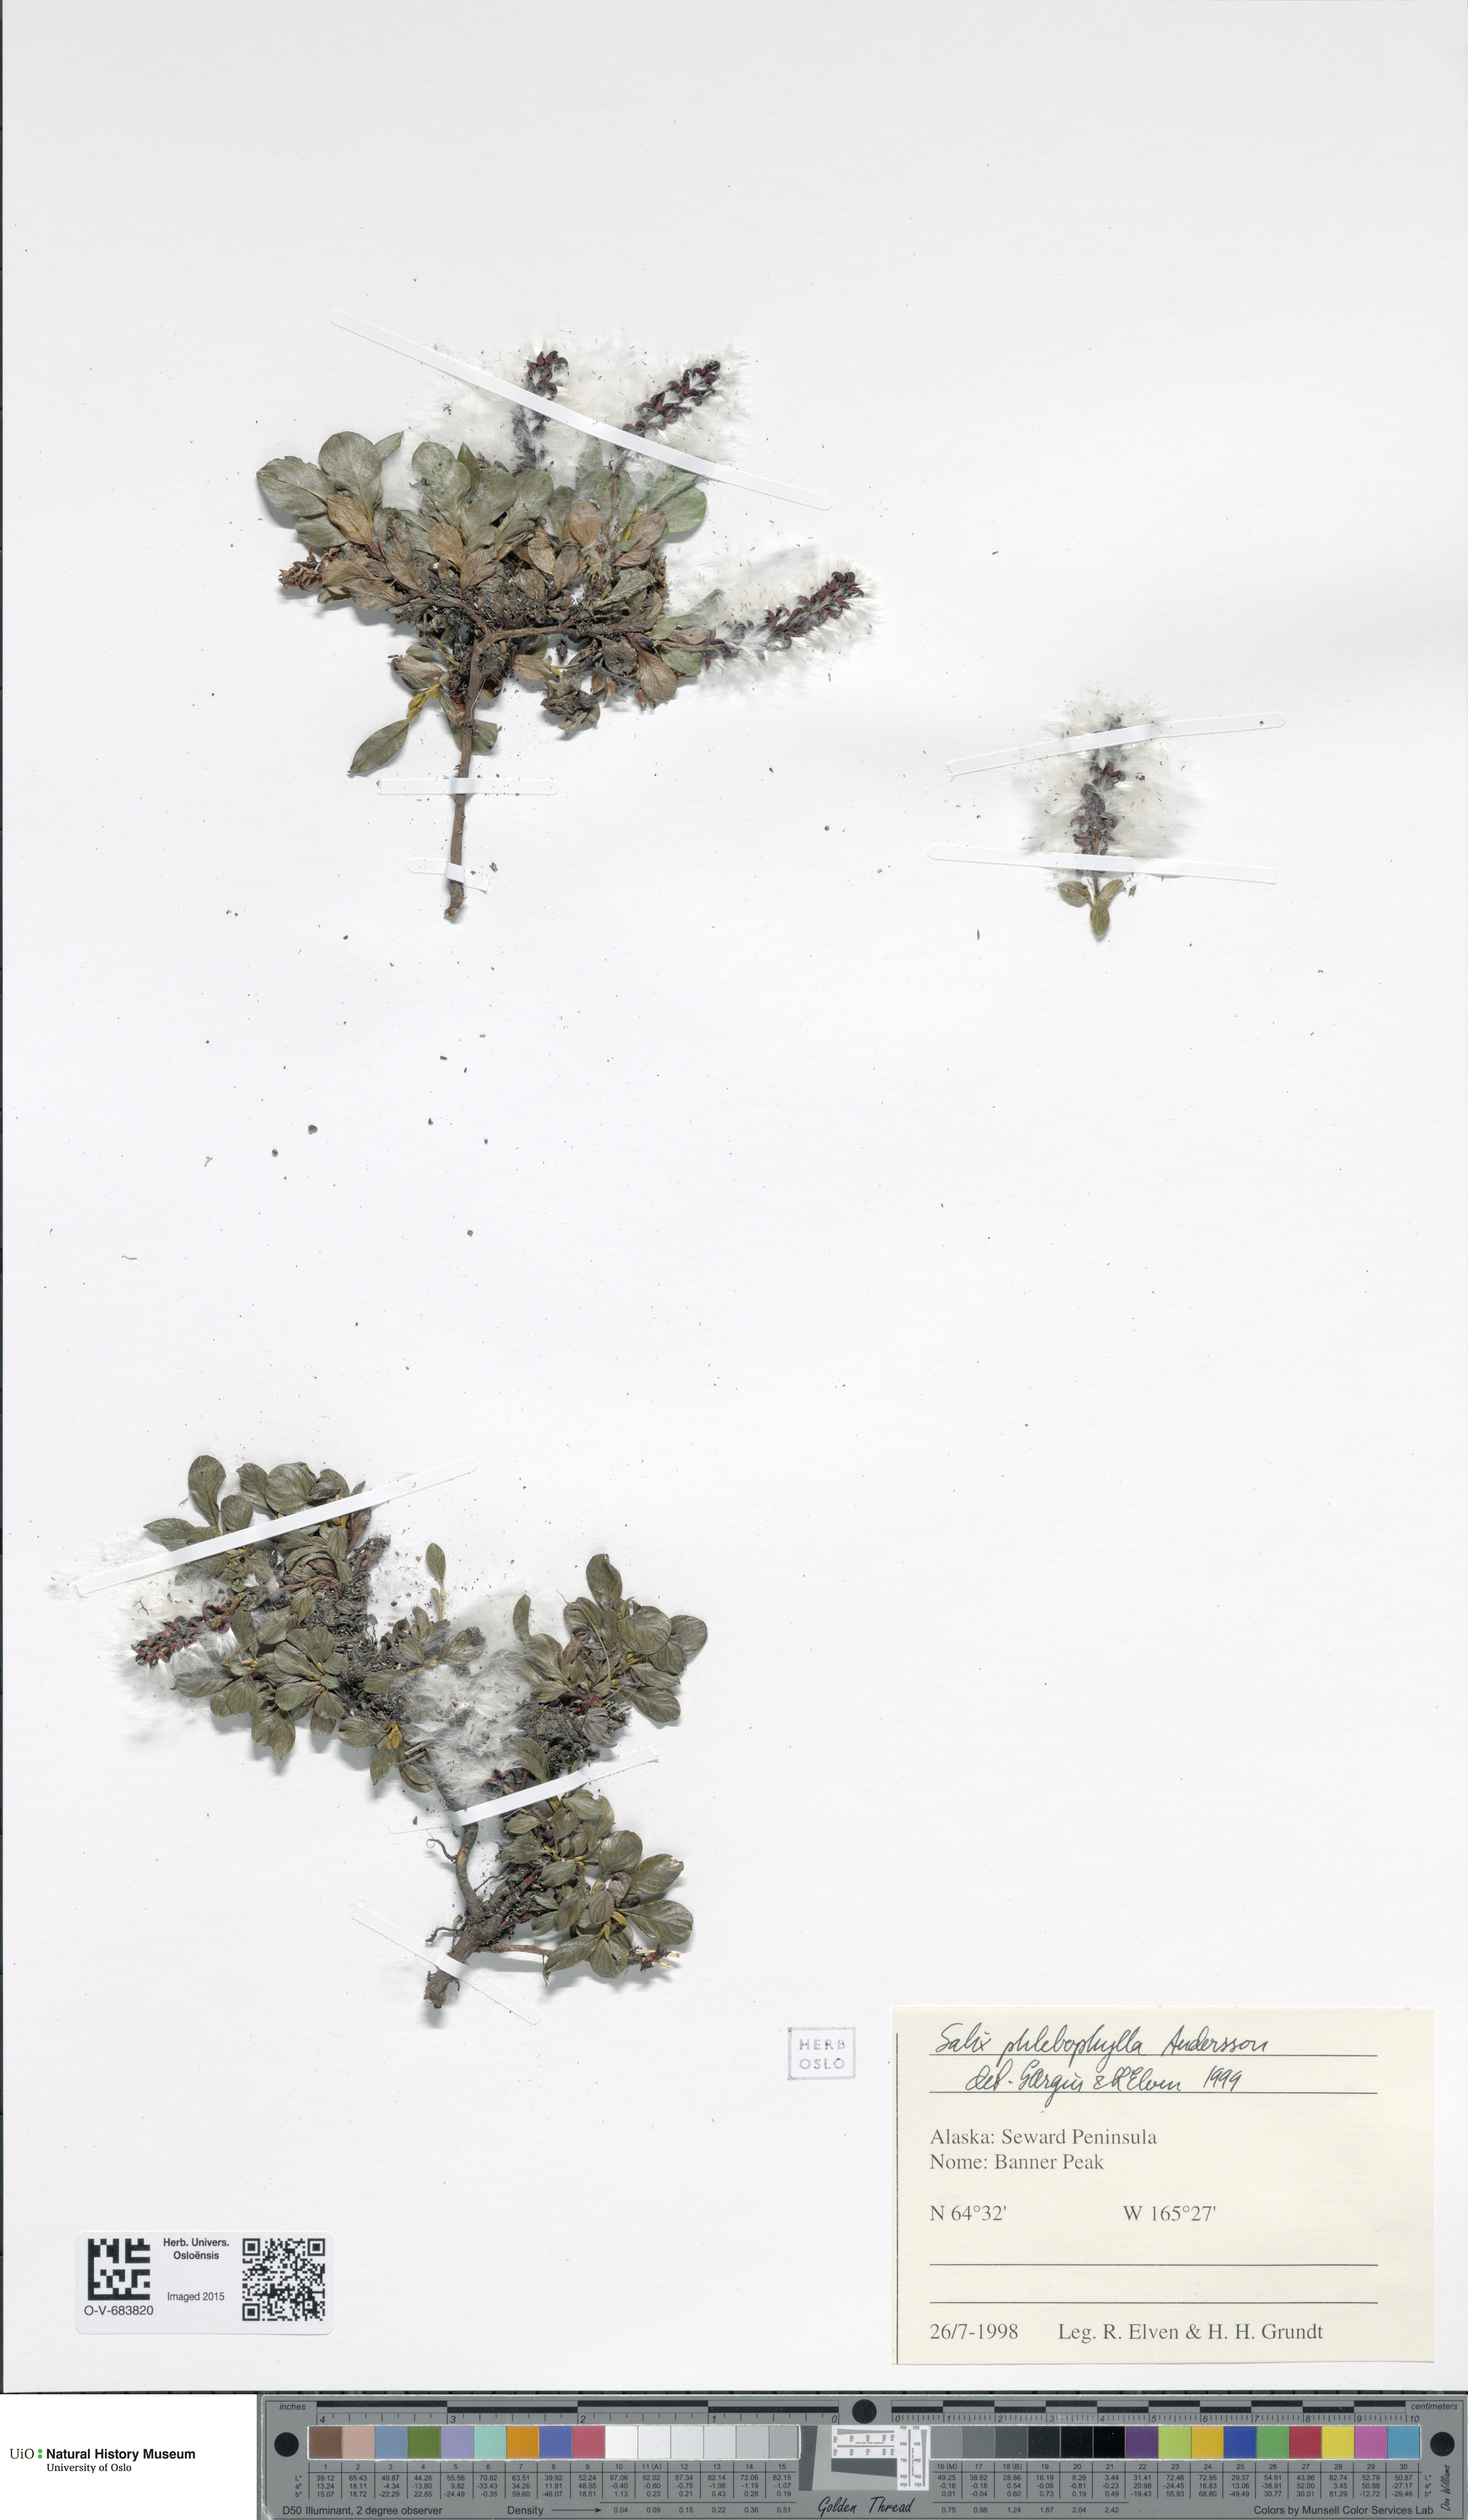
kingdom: Plantae
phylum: Tracheophyta
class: Magnoliopsida
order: Malpighiales
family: Salicaceae
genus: Salix
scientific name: Salix phlebophylla
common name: Skeleton-leaved willow
